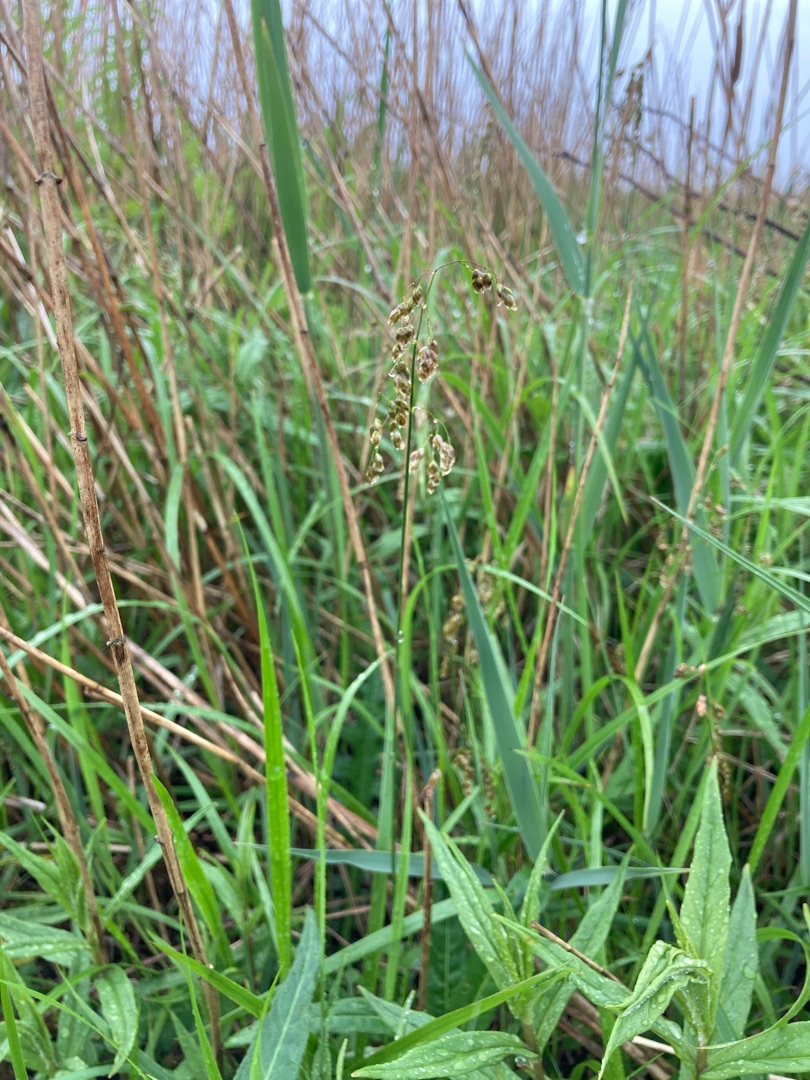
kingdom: Plantae
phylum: Tracheophyta
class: Liliopsida
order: Poales
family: Poaceae
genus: Anthoxanthum
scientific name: Anthoxanthum nitens
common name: Festgræs
